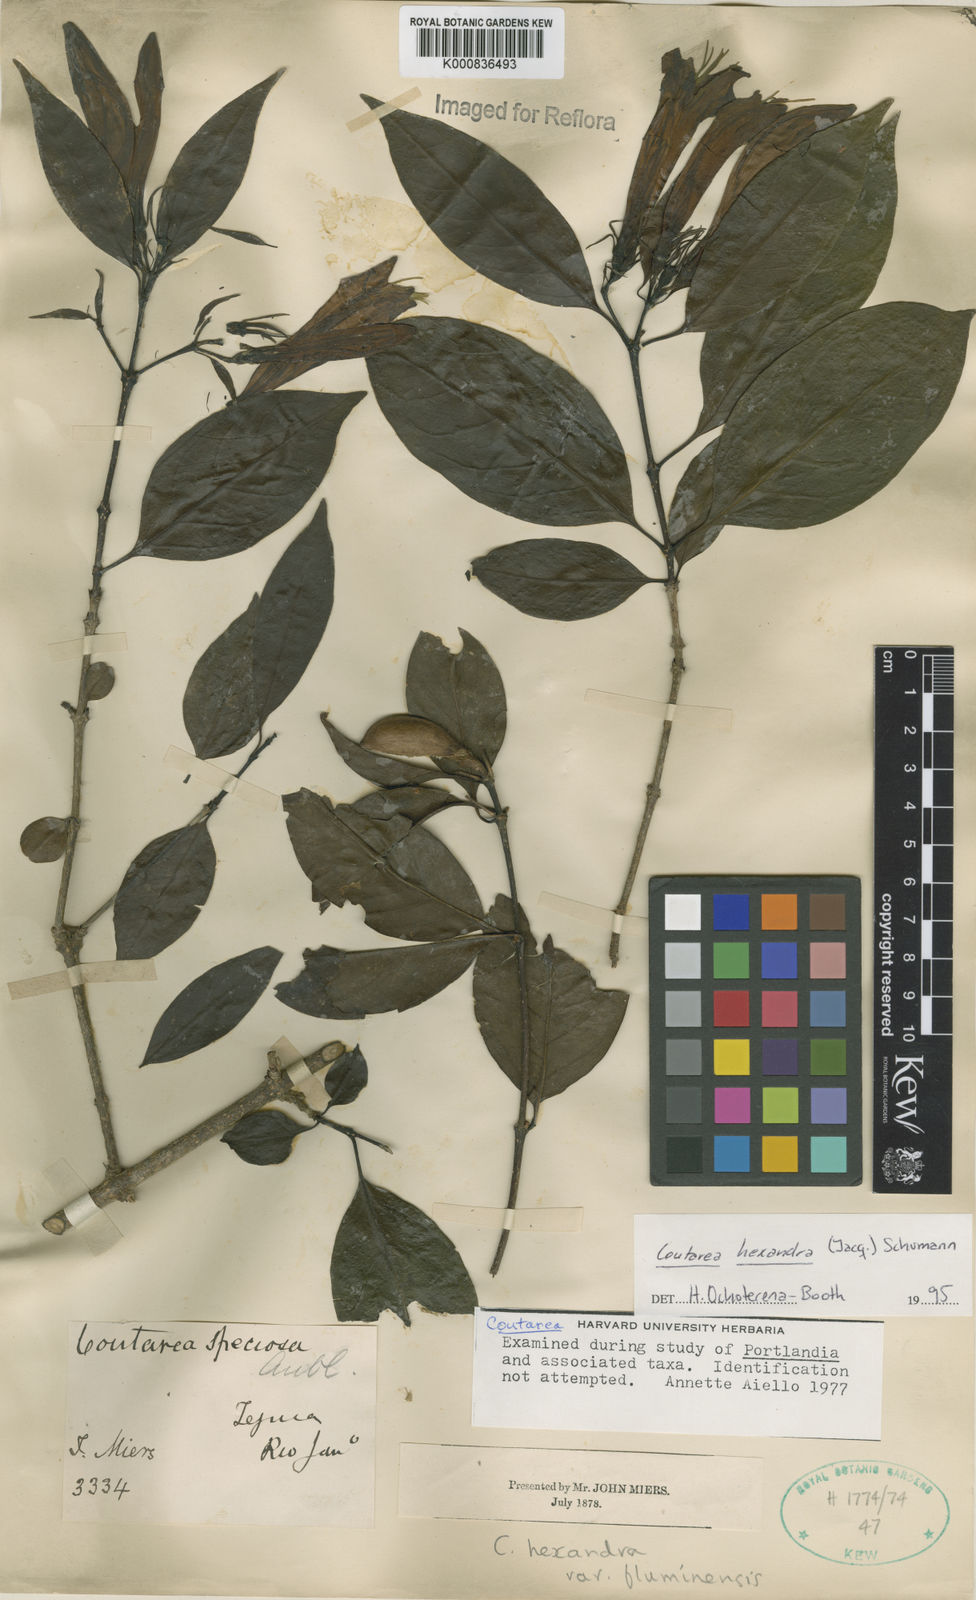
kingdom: Plantae
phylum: Tracheophyta
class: Magnoliopsida
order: Gentianales
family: Rubiaceae
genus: Coutarea
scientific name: Coutarea hexandra
